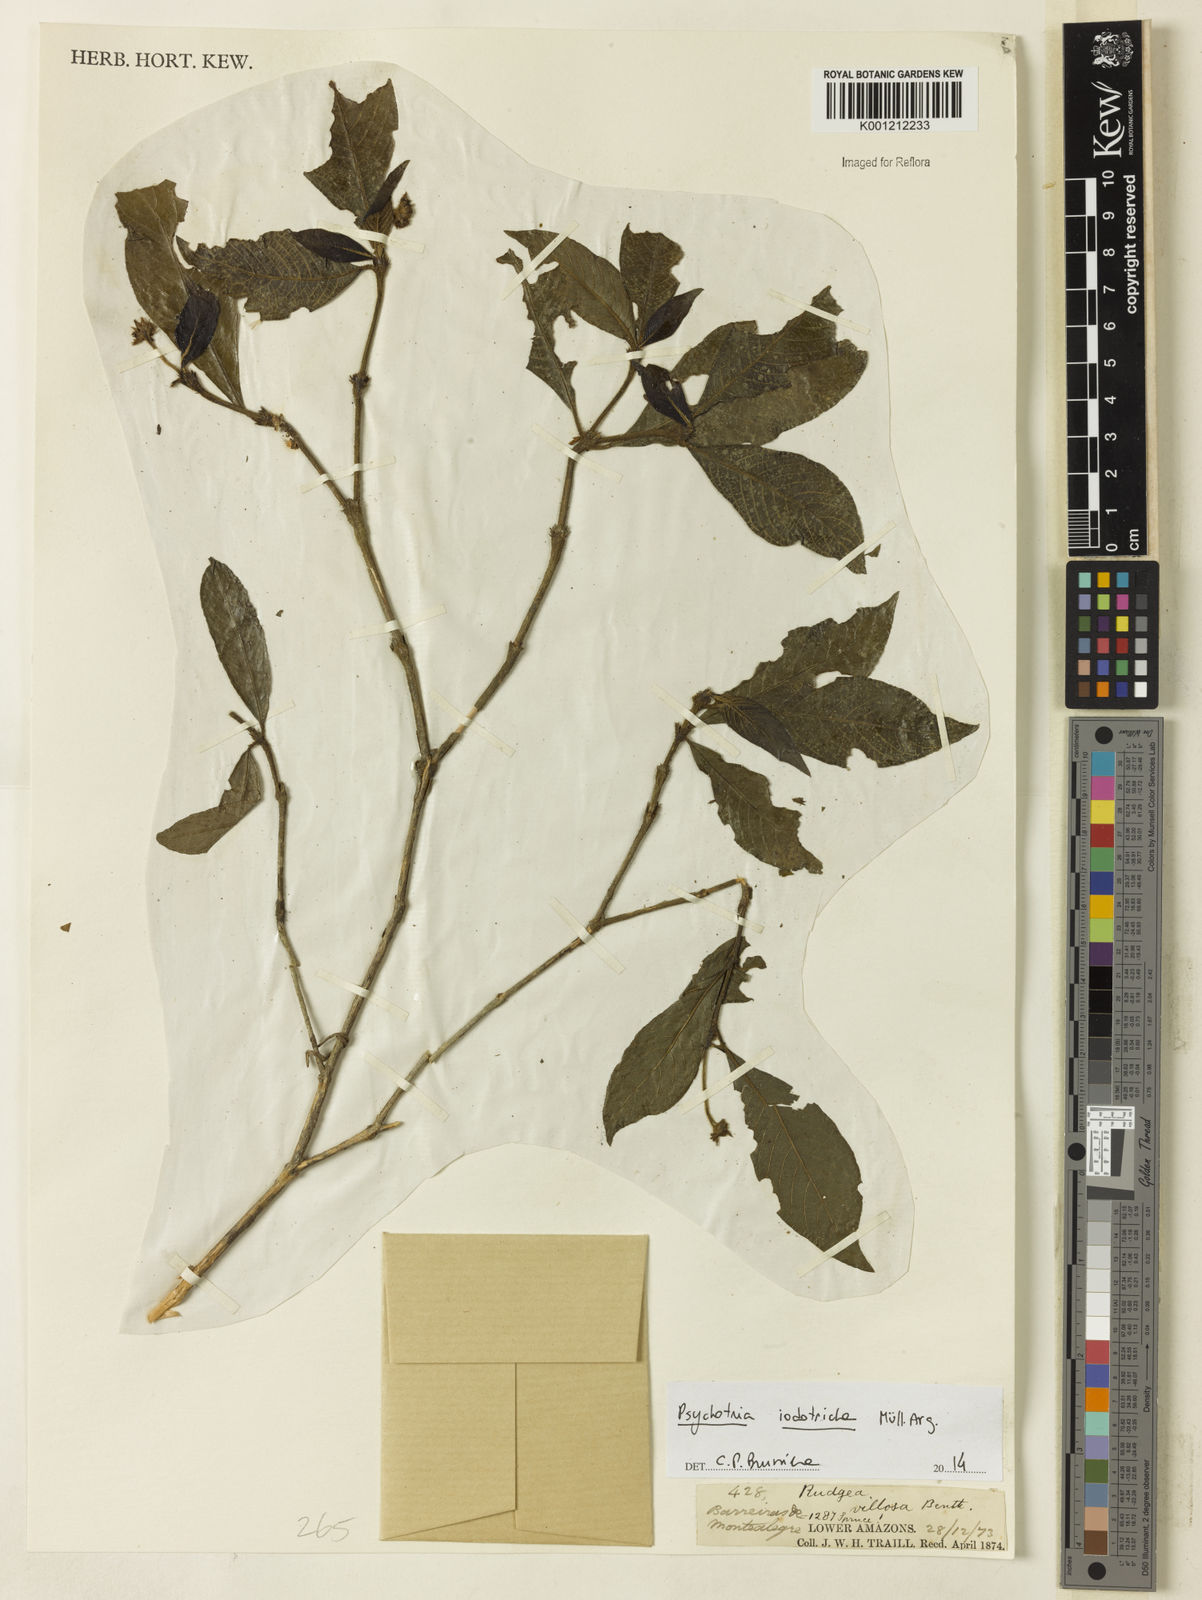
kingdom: Plantae
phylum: Tracheophyta
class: Magnoliopsida
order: Gentianales
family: Rubiaceae
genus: Psychotria
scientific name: Psychotria
